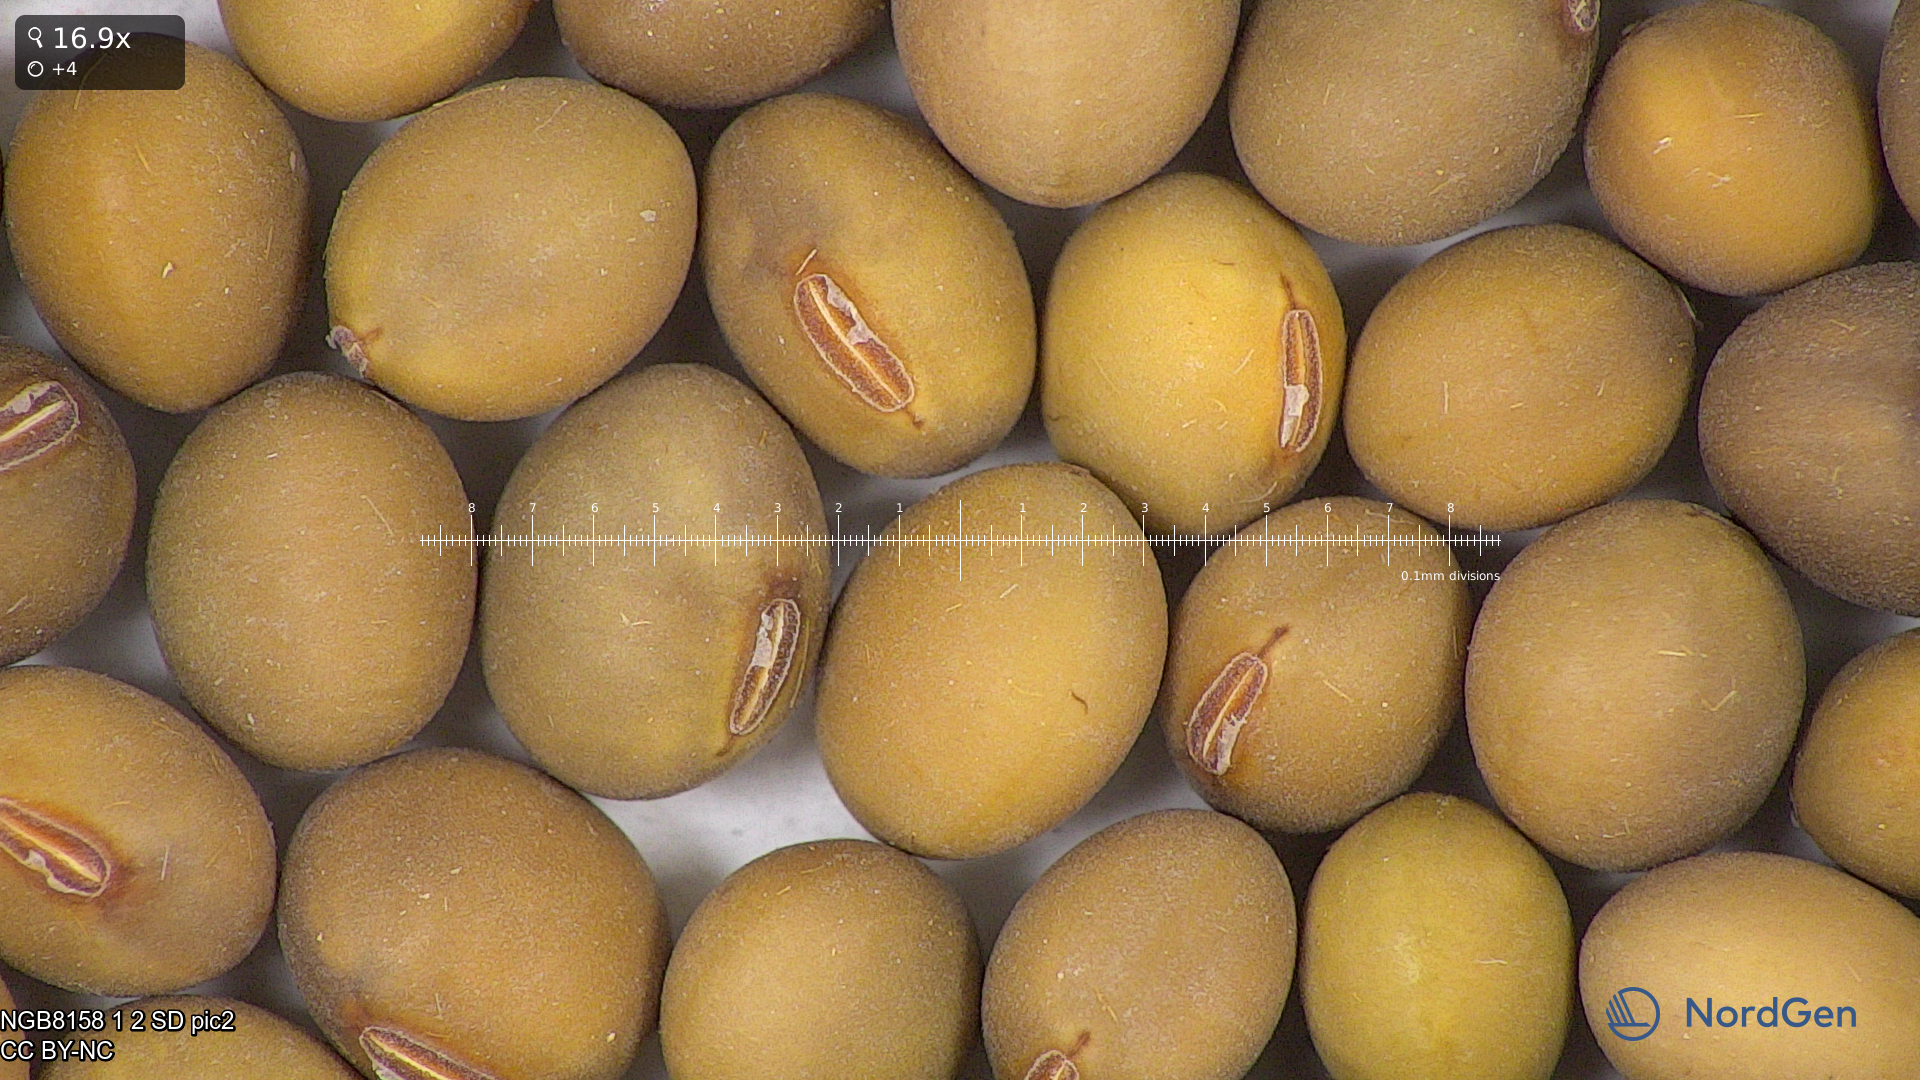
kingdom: Plantae
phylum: Tracheophyta
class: Magnoliopsida
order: Fabales
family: Fabaceae
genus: Glycine
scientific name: Glycine max
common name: Soya-bean
